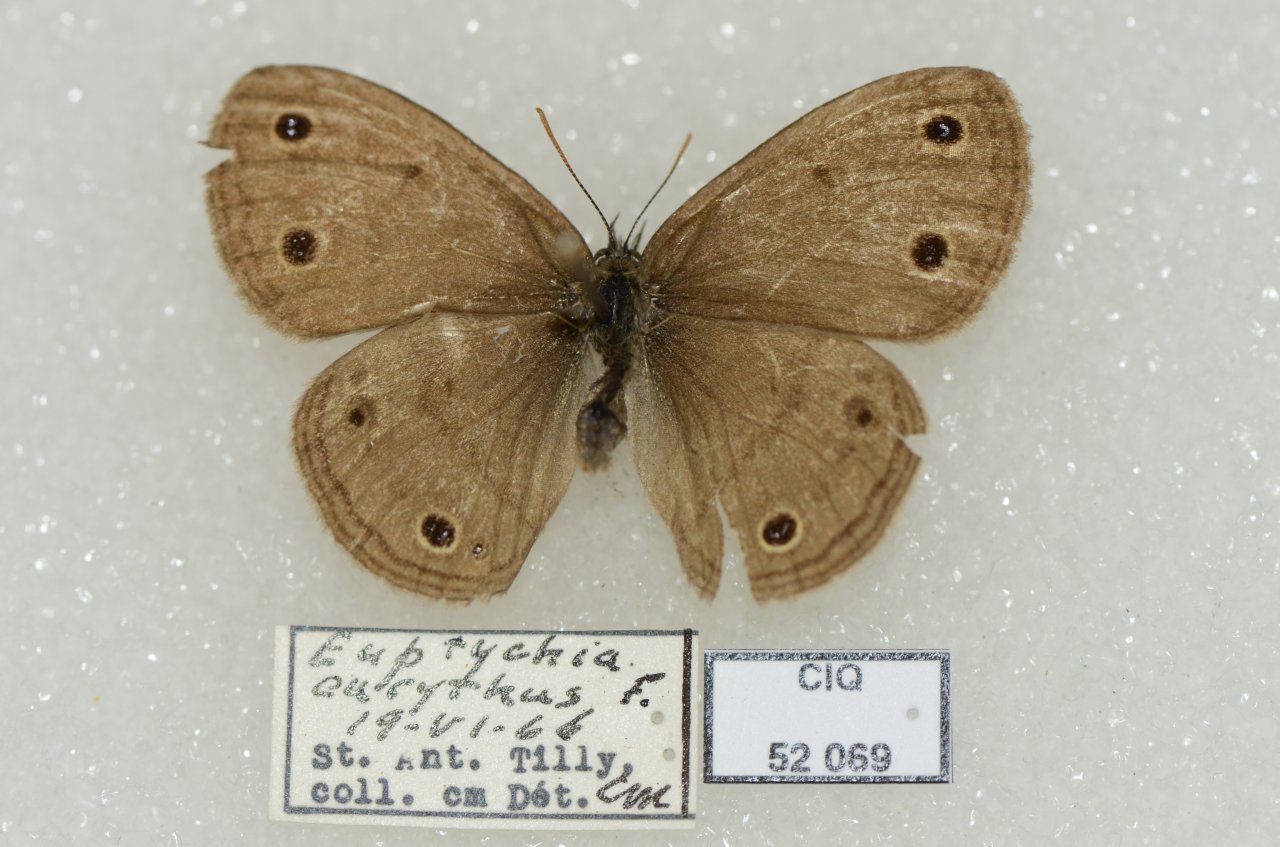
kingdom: Animalia
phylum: Arthropoda
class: Insecta
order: Lepidoptera
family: Nymphalidae
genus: Euptychia
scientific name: Euptychia cymela
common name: Little Wood Satyr
